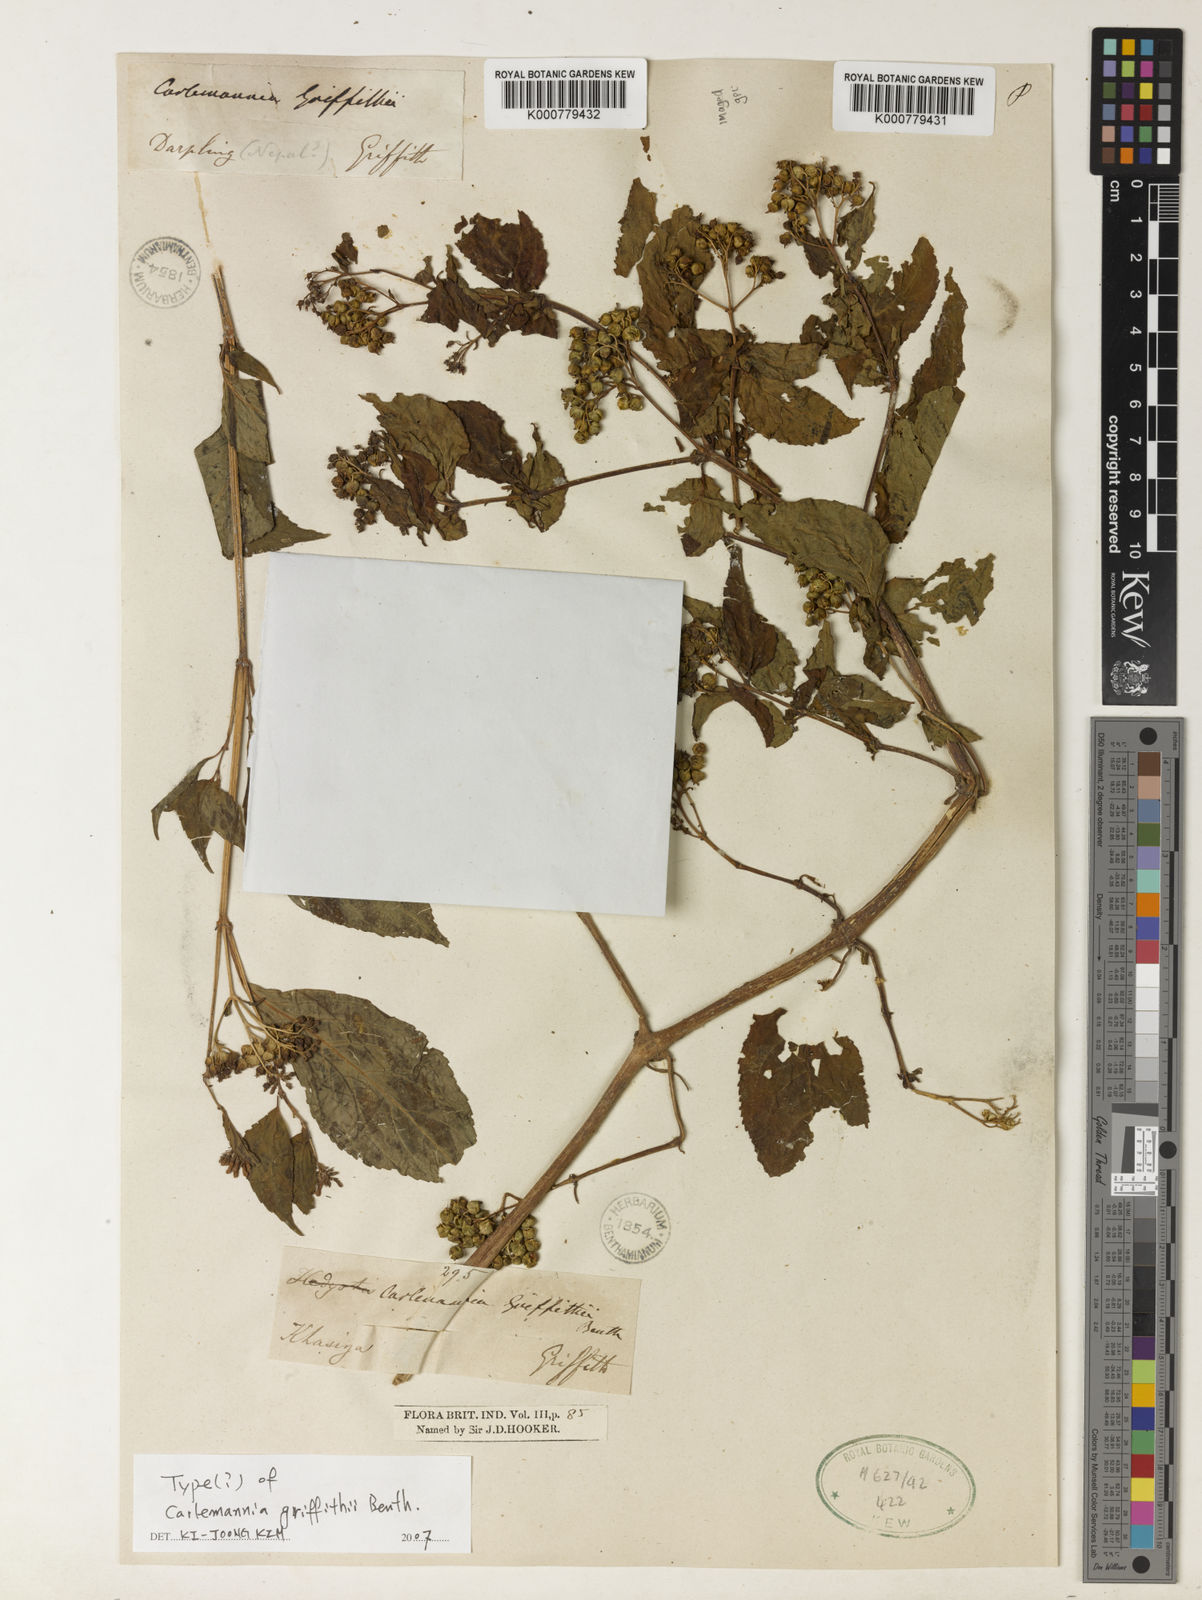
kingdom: Plantae
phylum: Tracheophyta
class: Magnoliopsida
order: Lamiales
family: Carlemanniaceae
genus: Carlemannia
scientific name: Carlemannia griffithii
